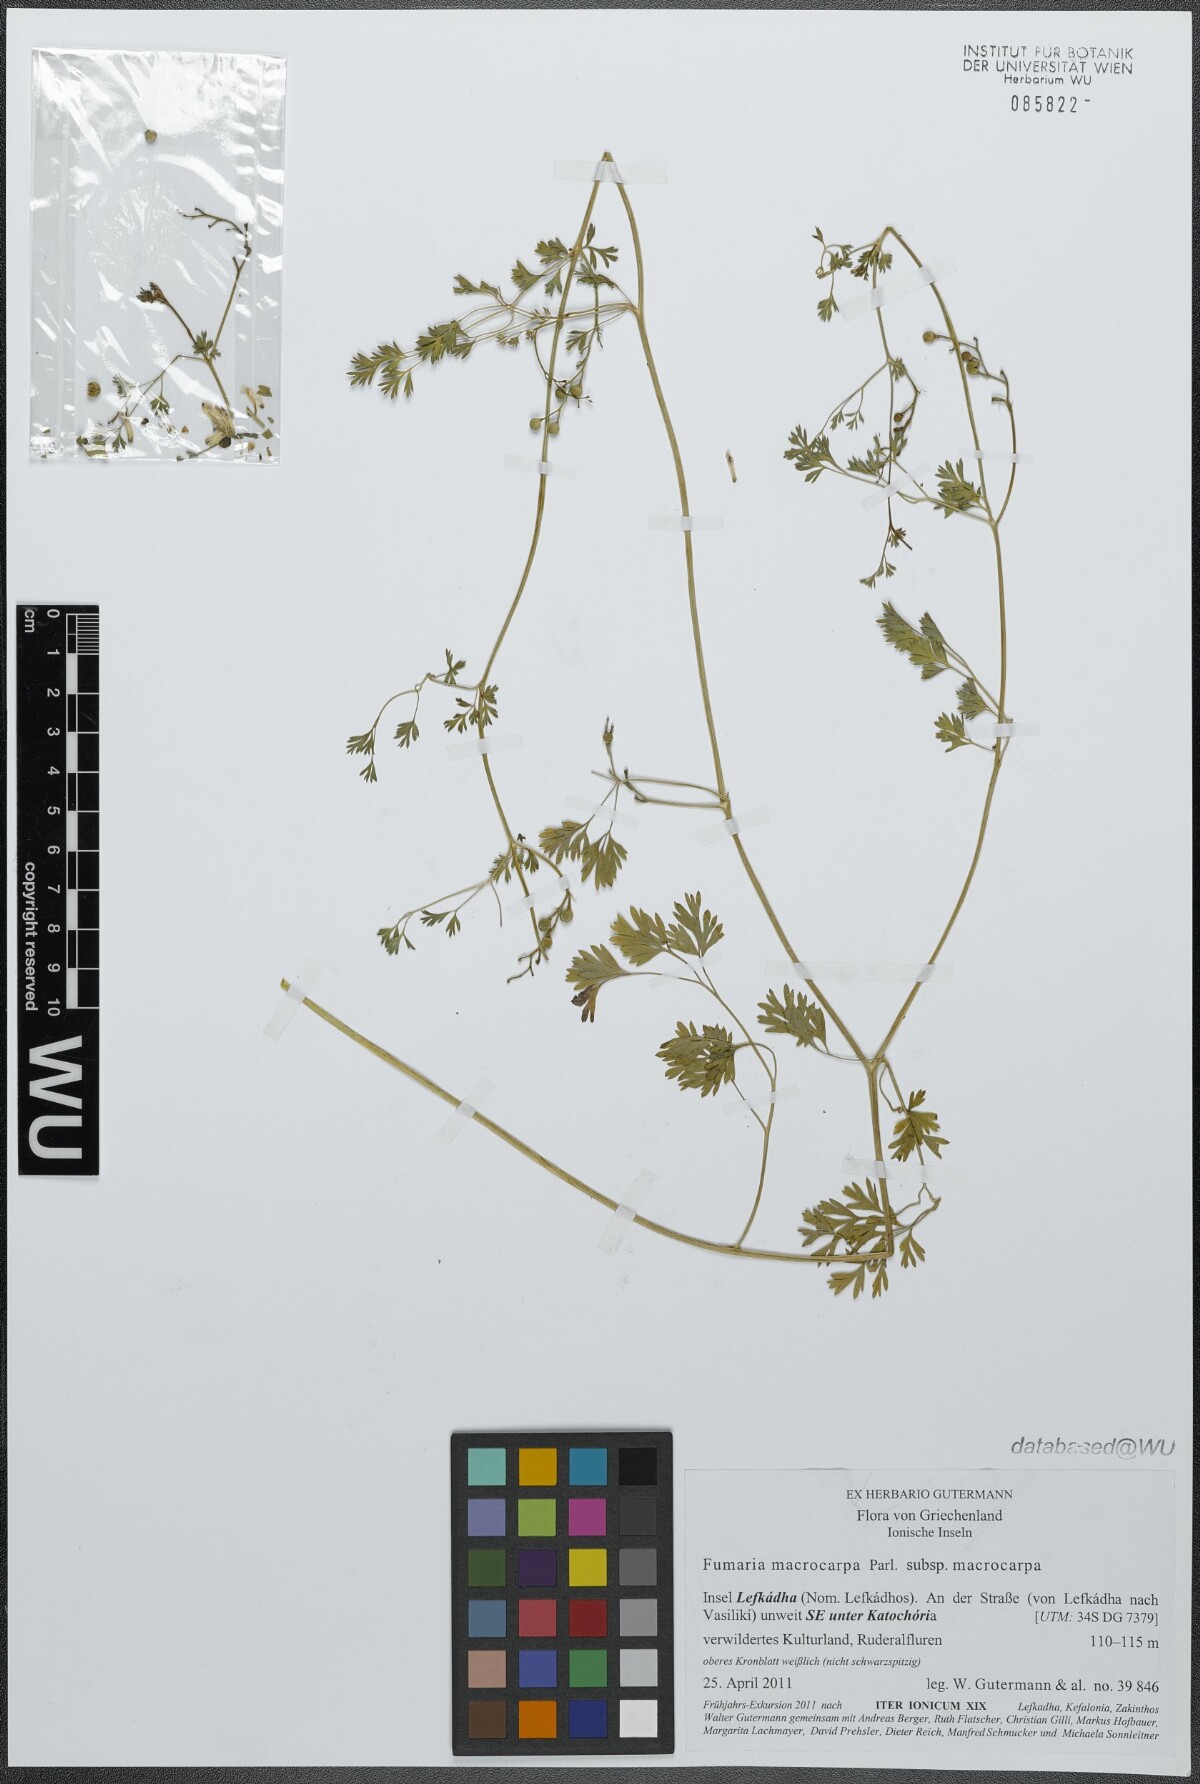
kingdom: Plantae
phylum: Tracheophyta
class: Magnoliopsida
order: Ranunculales
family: Papaveraceae
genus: Fumaria
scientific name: Fumaria macrocarpa
